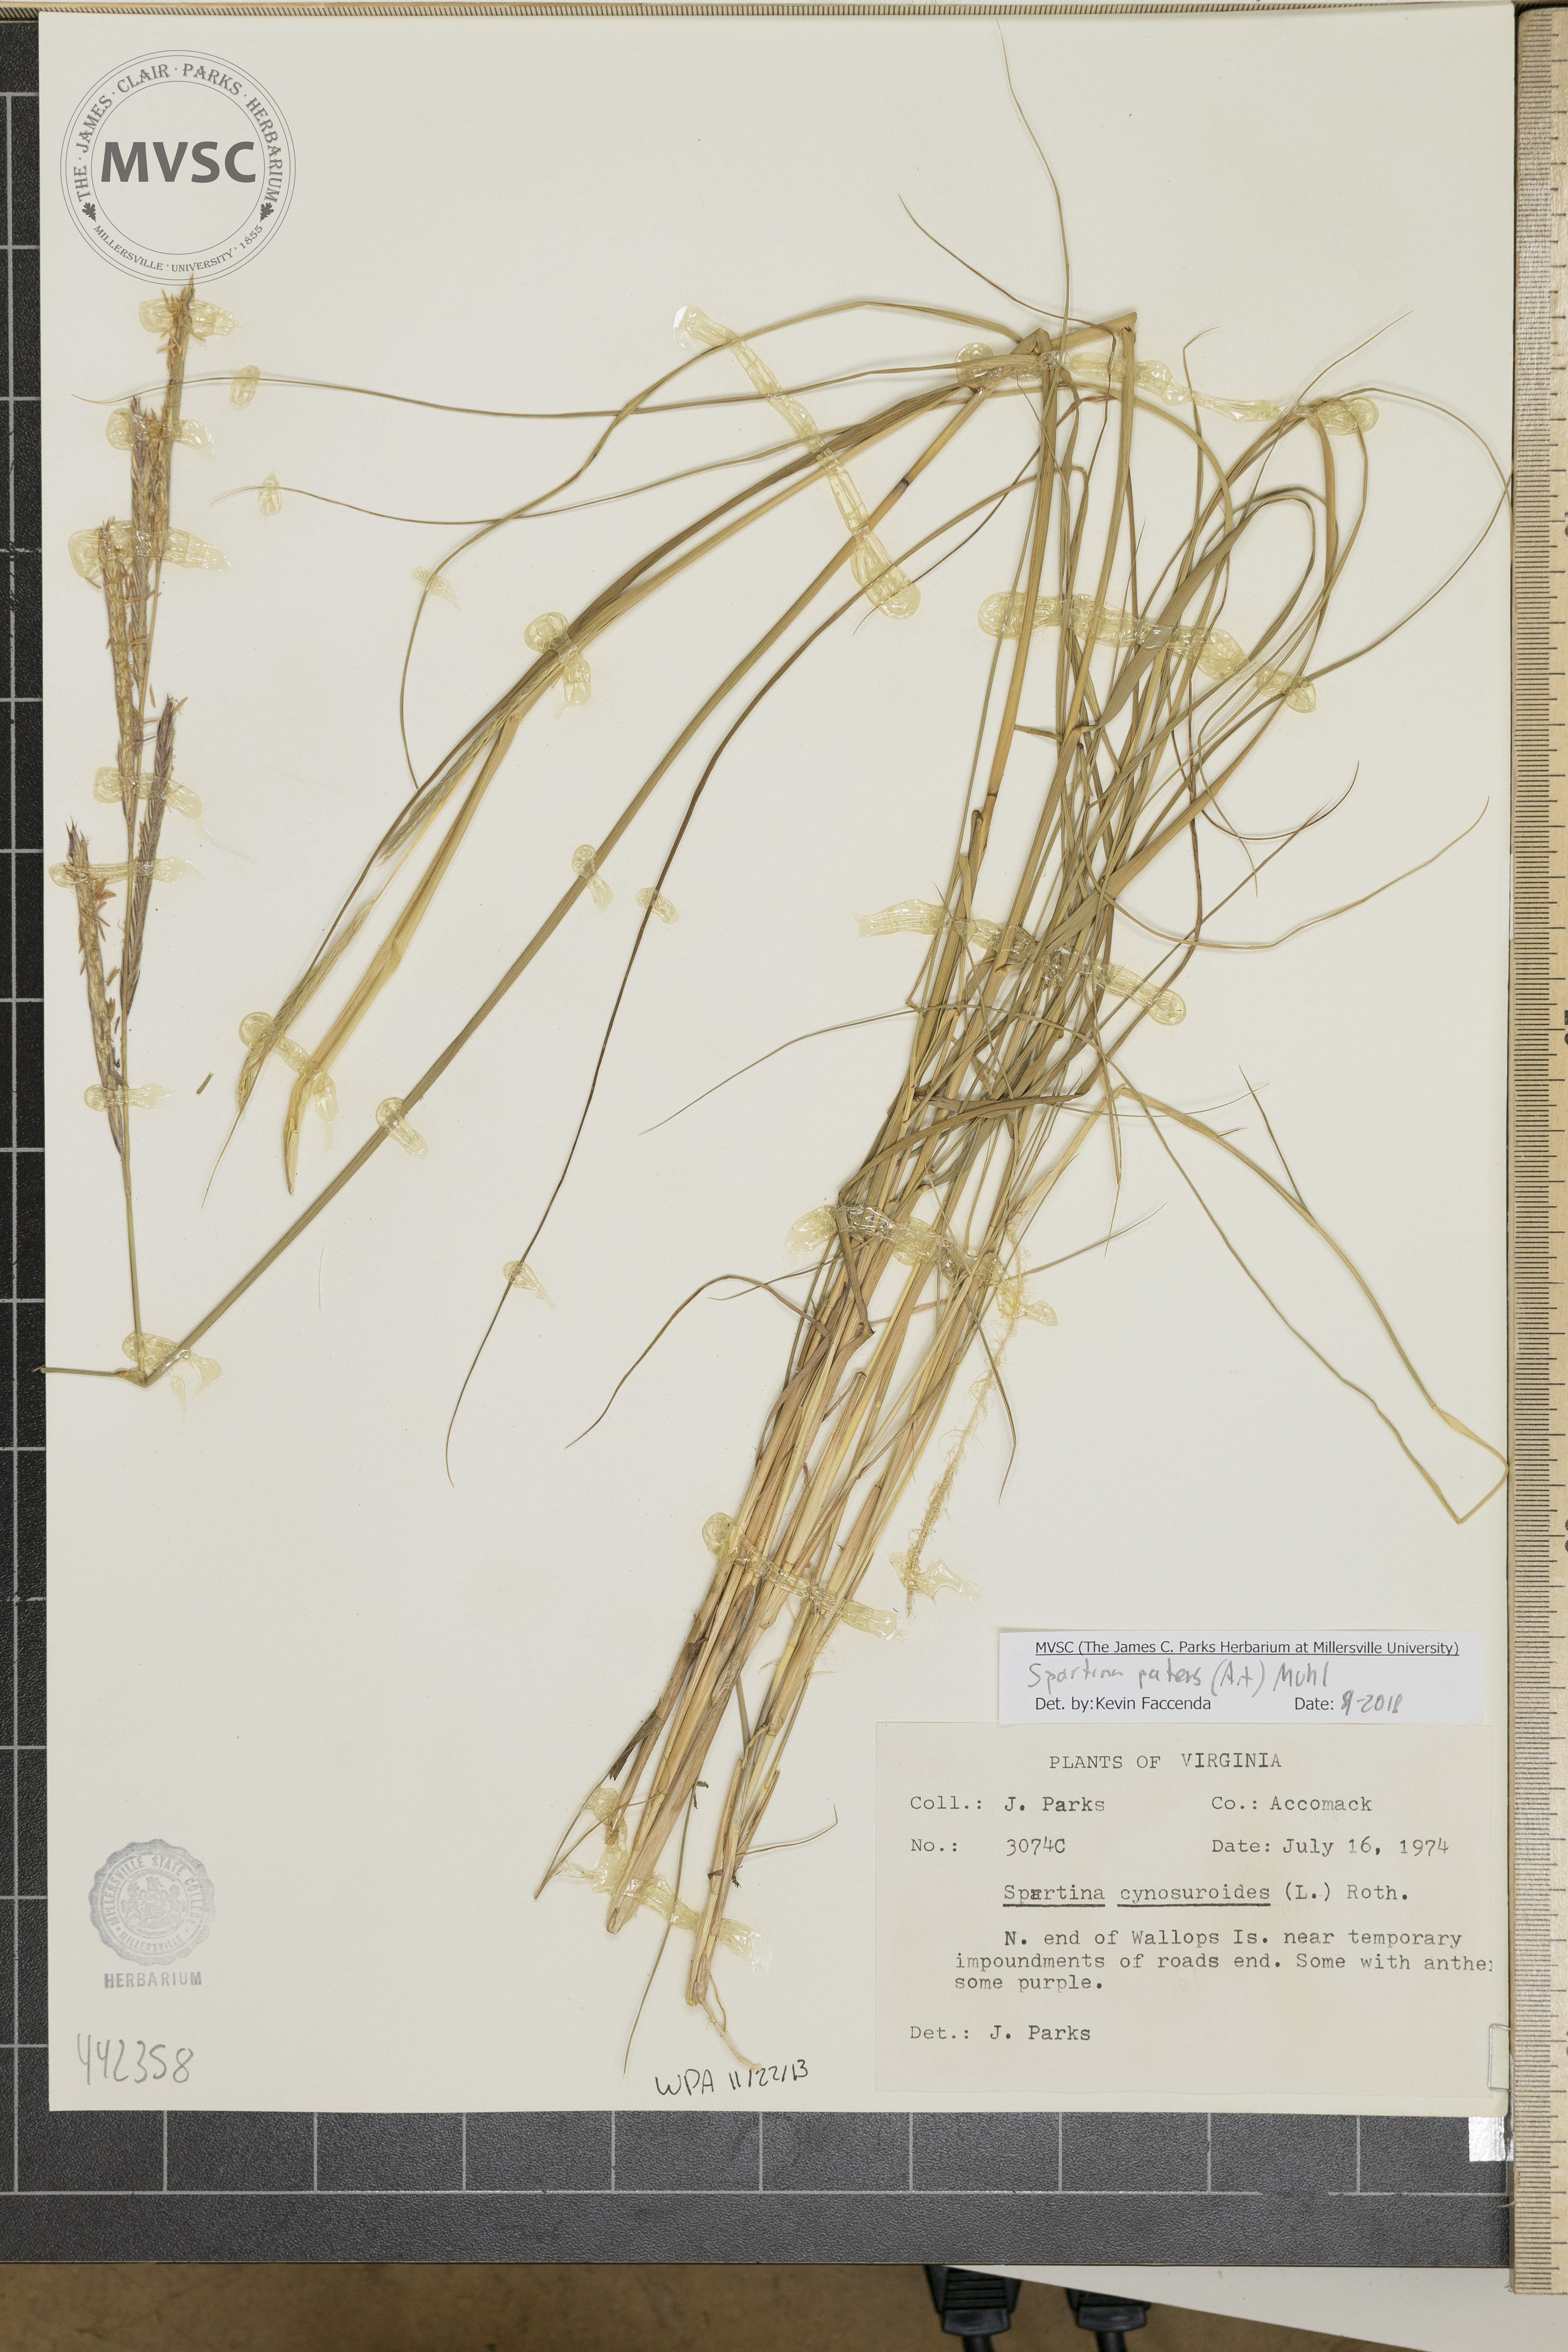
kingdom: Plantae
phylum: Tracheophyta
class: Liliopsida
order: Poales
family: Poaceae
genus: Sporobolus
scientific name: Sporobolus pumilus
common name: Highwater grass
